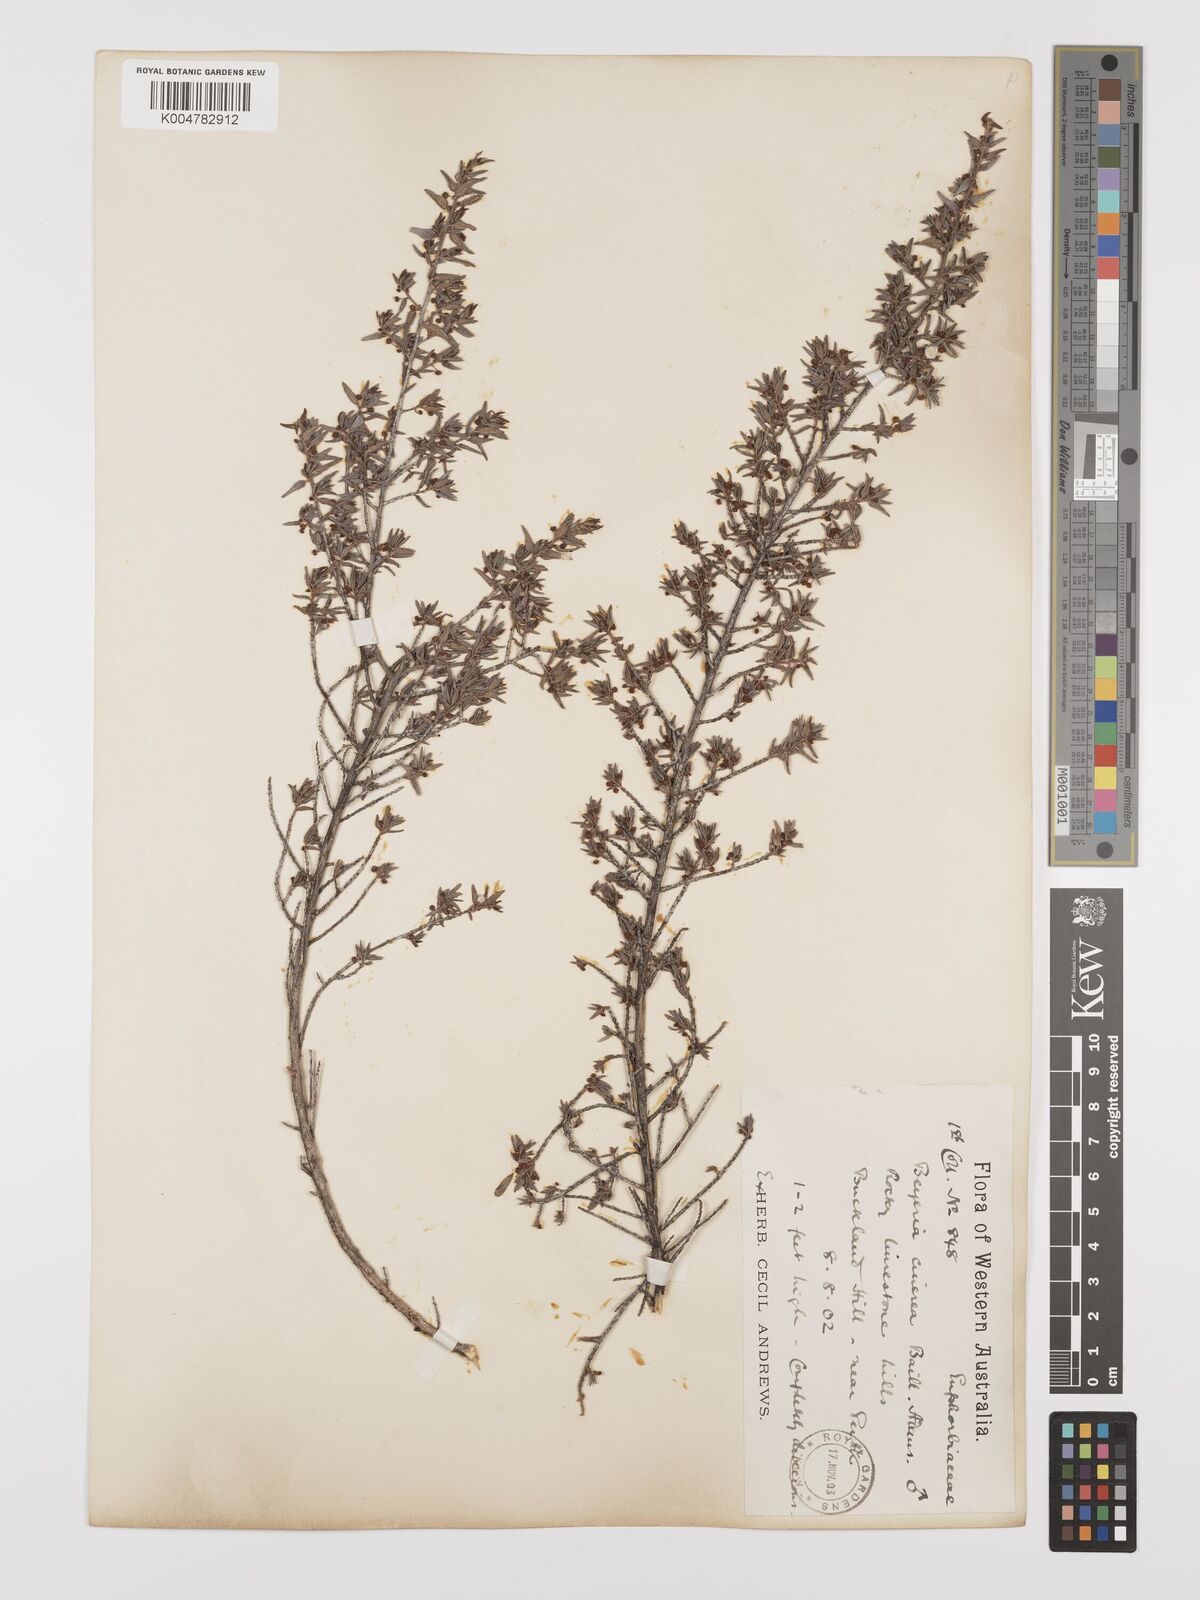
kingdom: Plantae
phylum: Tracheophyta
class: Magnoliopsida
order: Malpighiales
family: Euphorbiaceae
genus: Beyeria
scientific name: Beyeria cinerea
